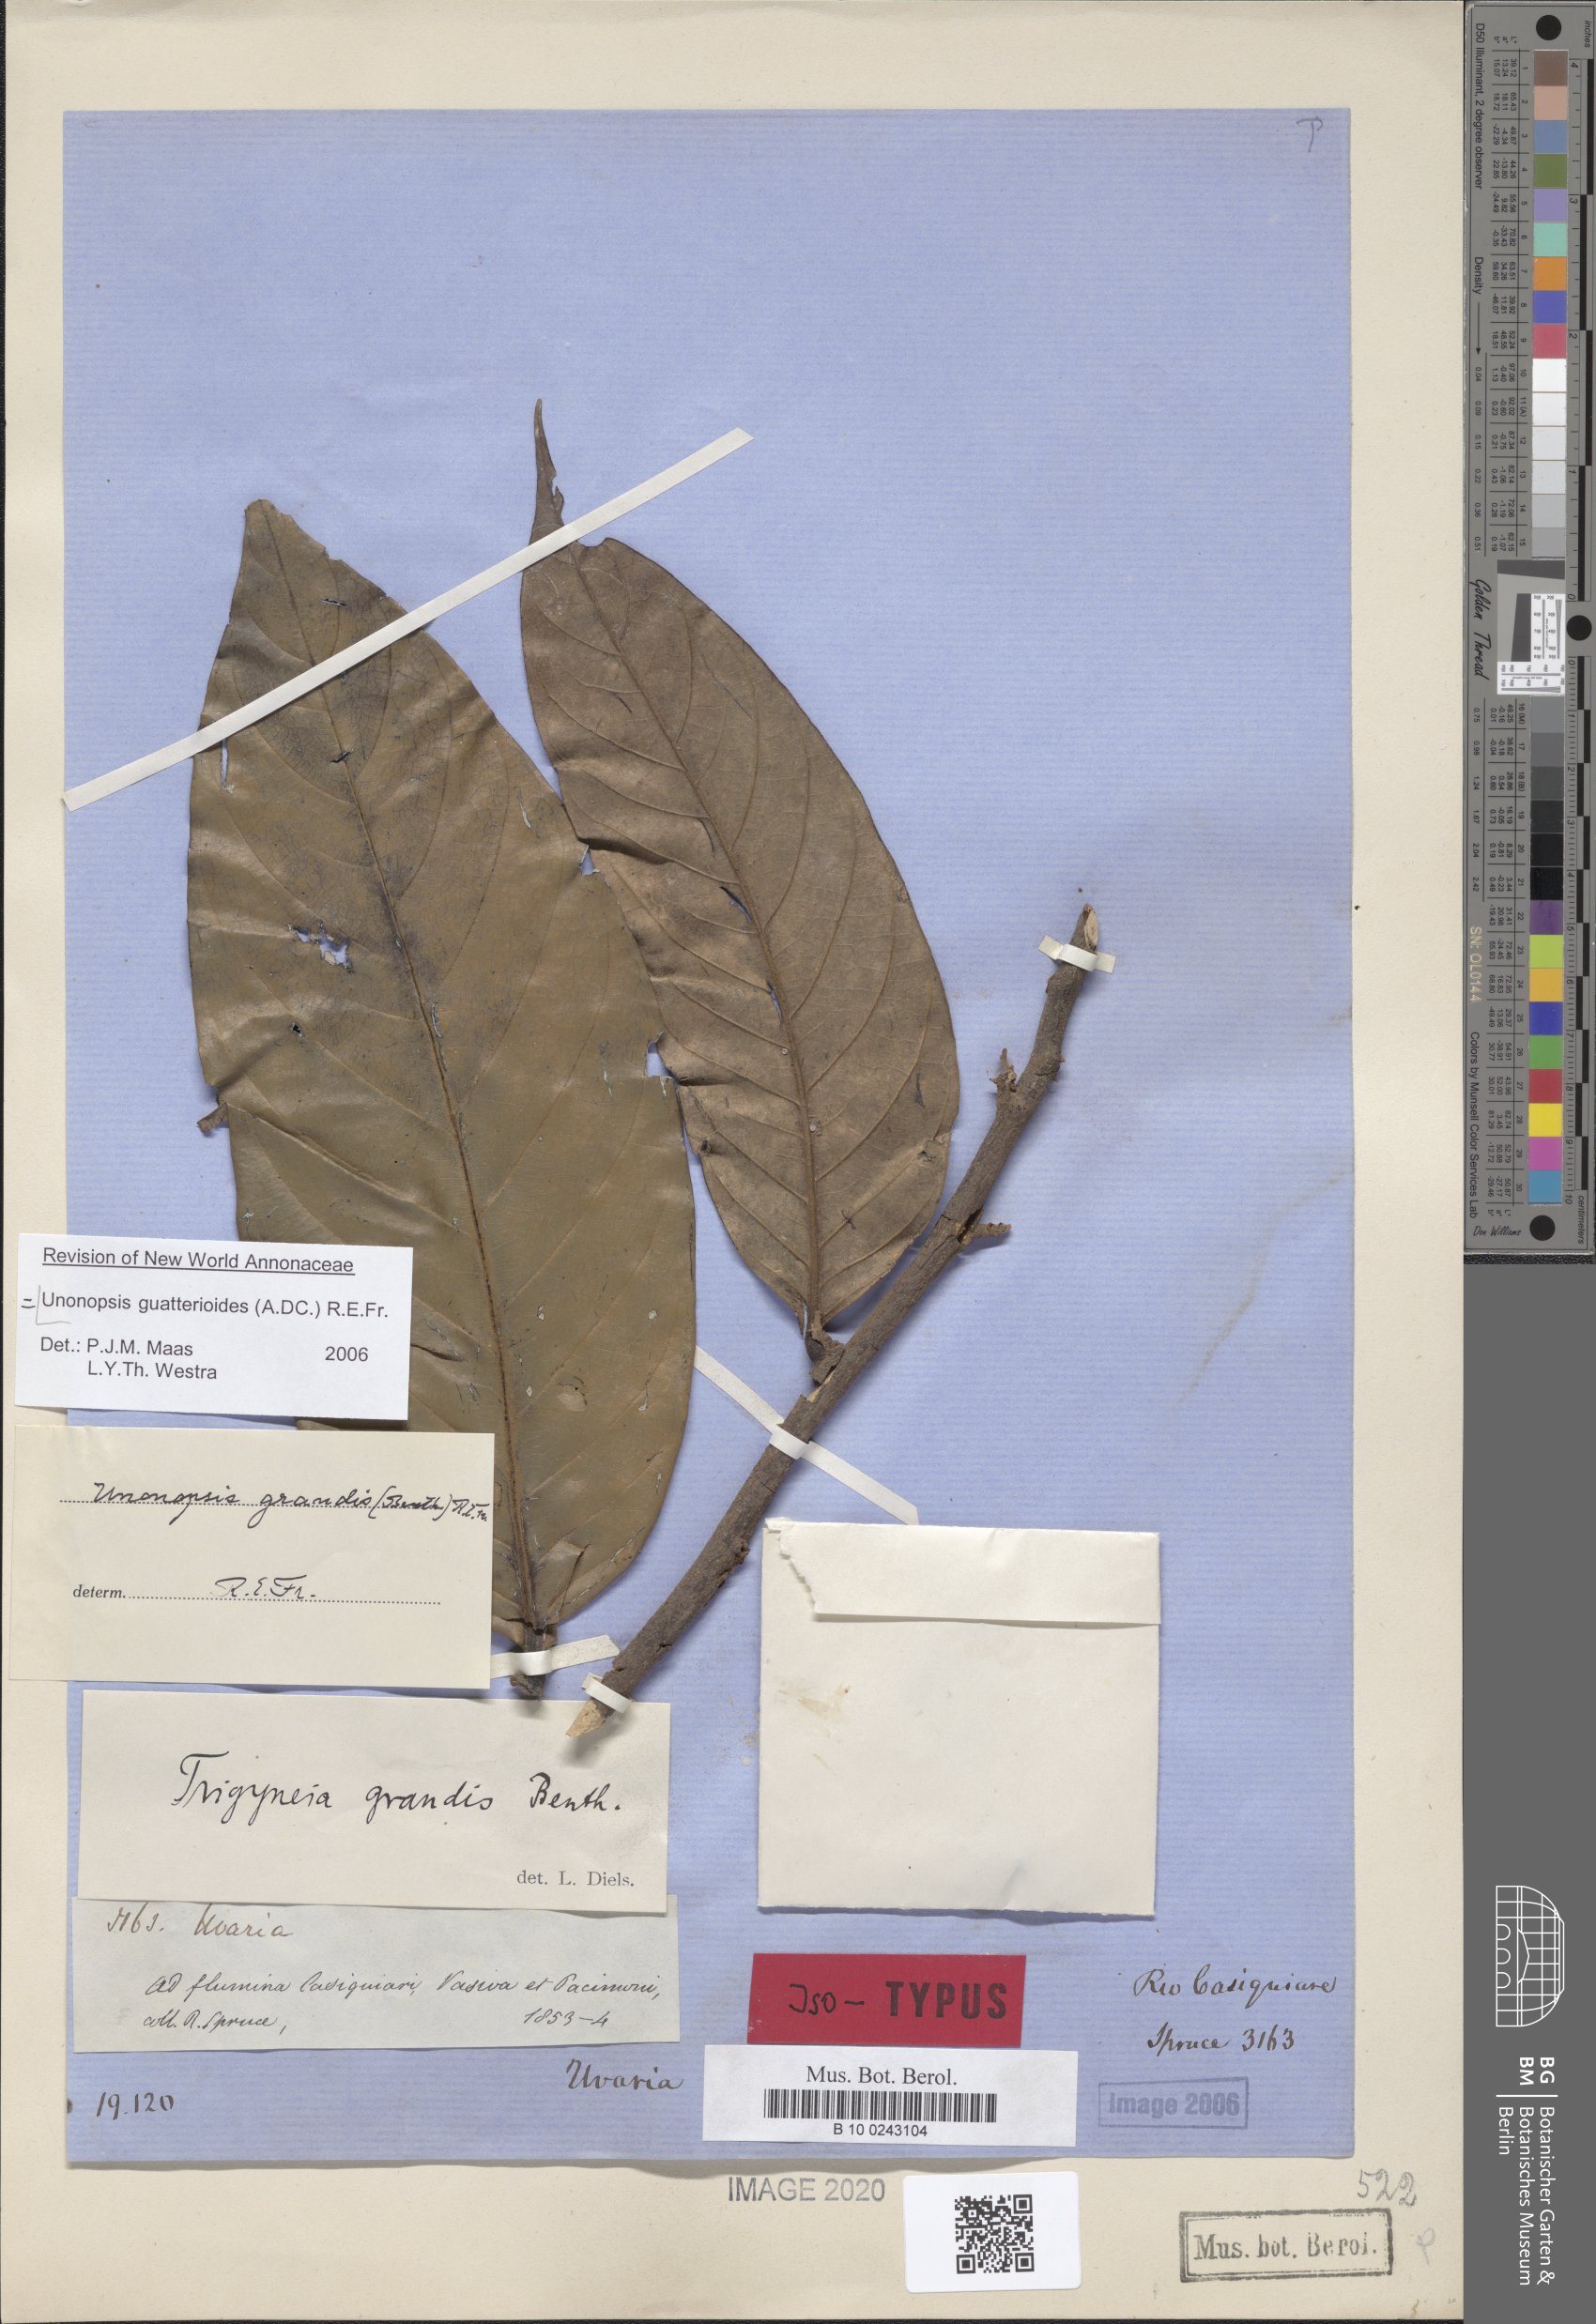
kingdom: Plantae
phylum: Tracheophyta
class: Magnoliopsida
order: Magnoliales
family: Annonaceae
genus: Unonopsis
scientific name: Unonopsis guatterioides
